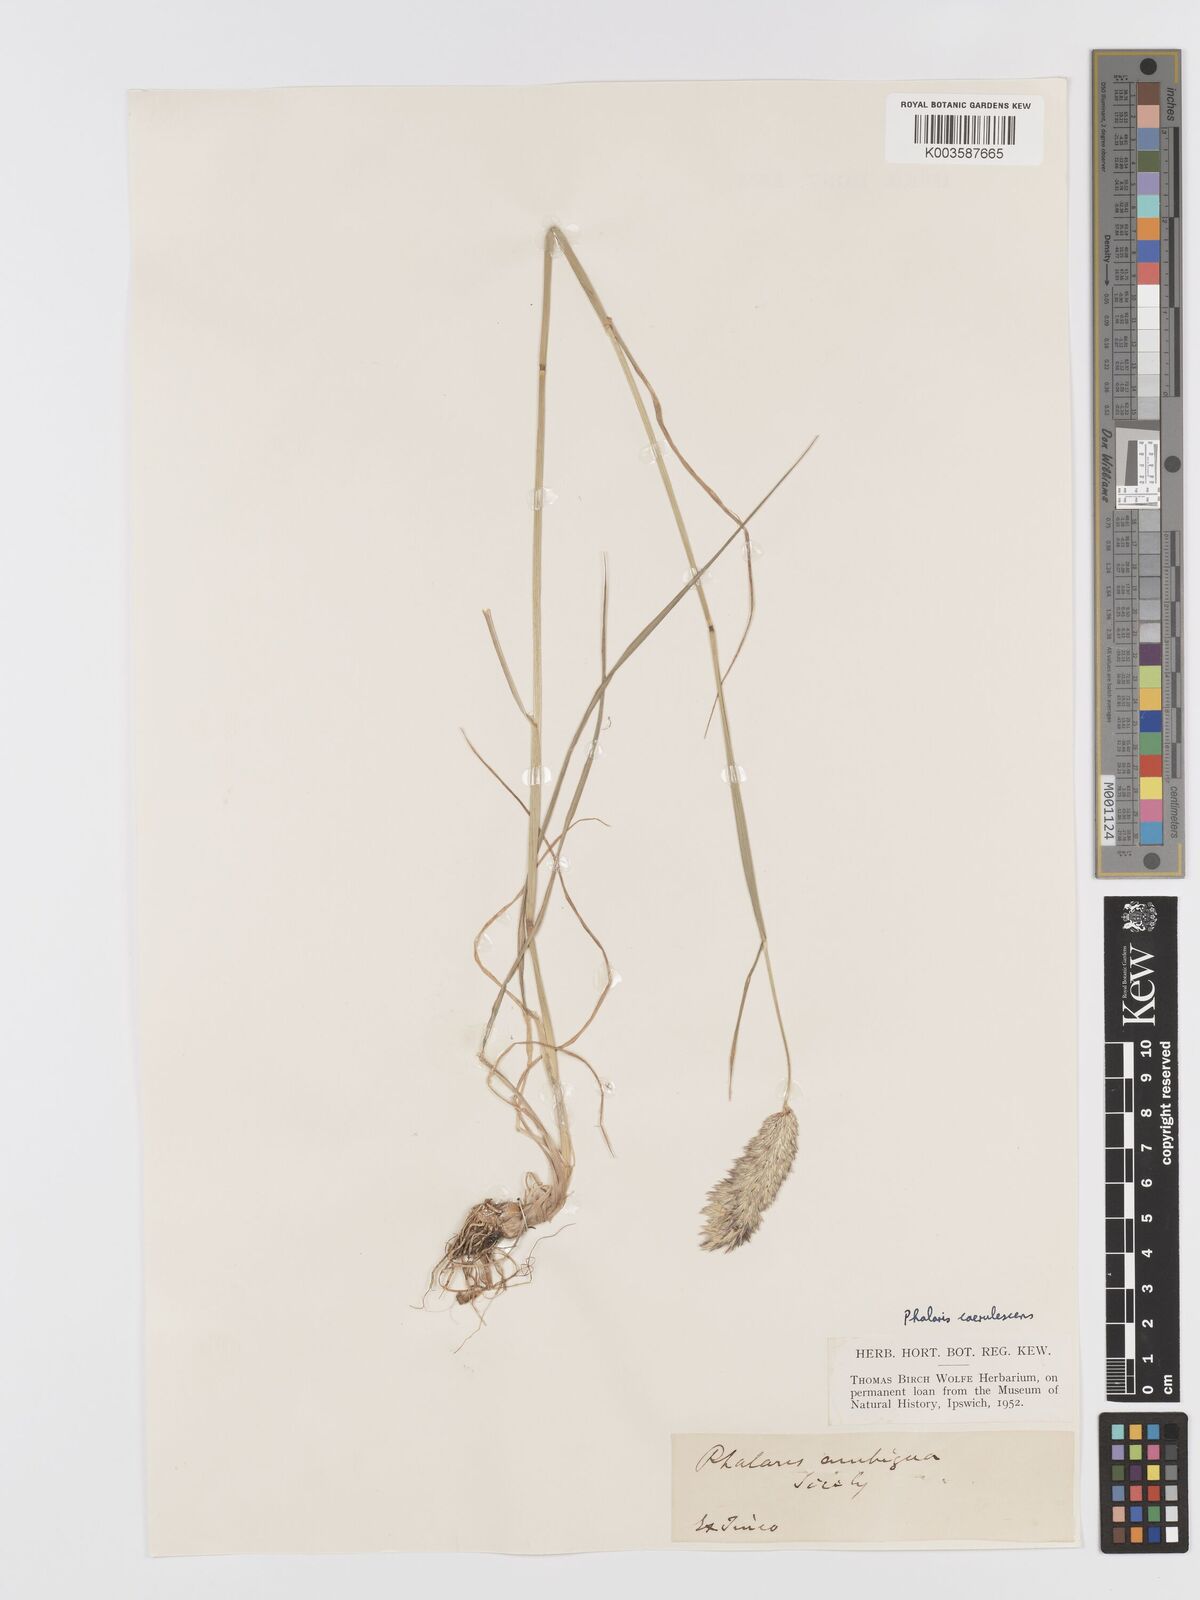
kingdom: Plantae
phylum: Tracheophyta
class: Liliopsida
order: Poales
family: Poaceae
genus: Phalaris
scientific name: Phalaris coerulescens
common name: Sunolgrass
